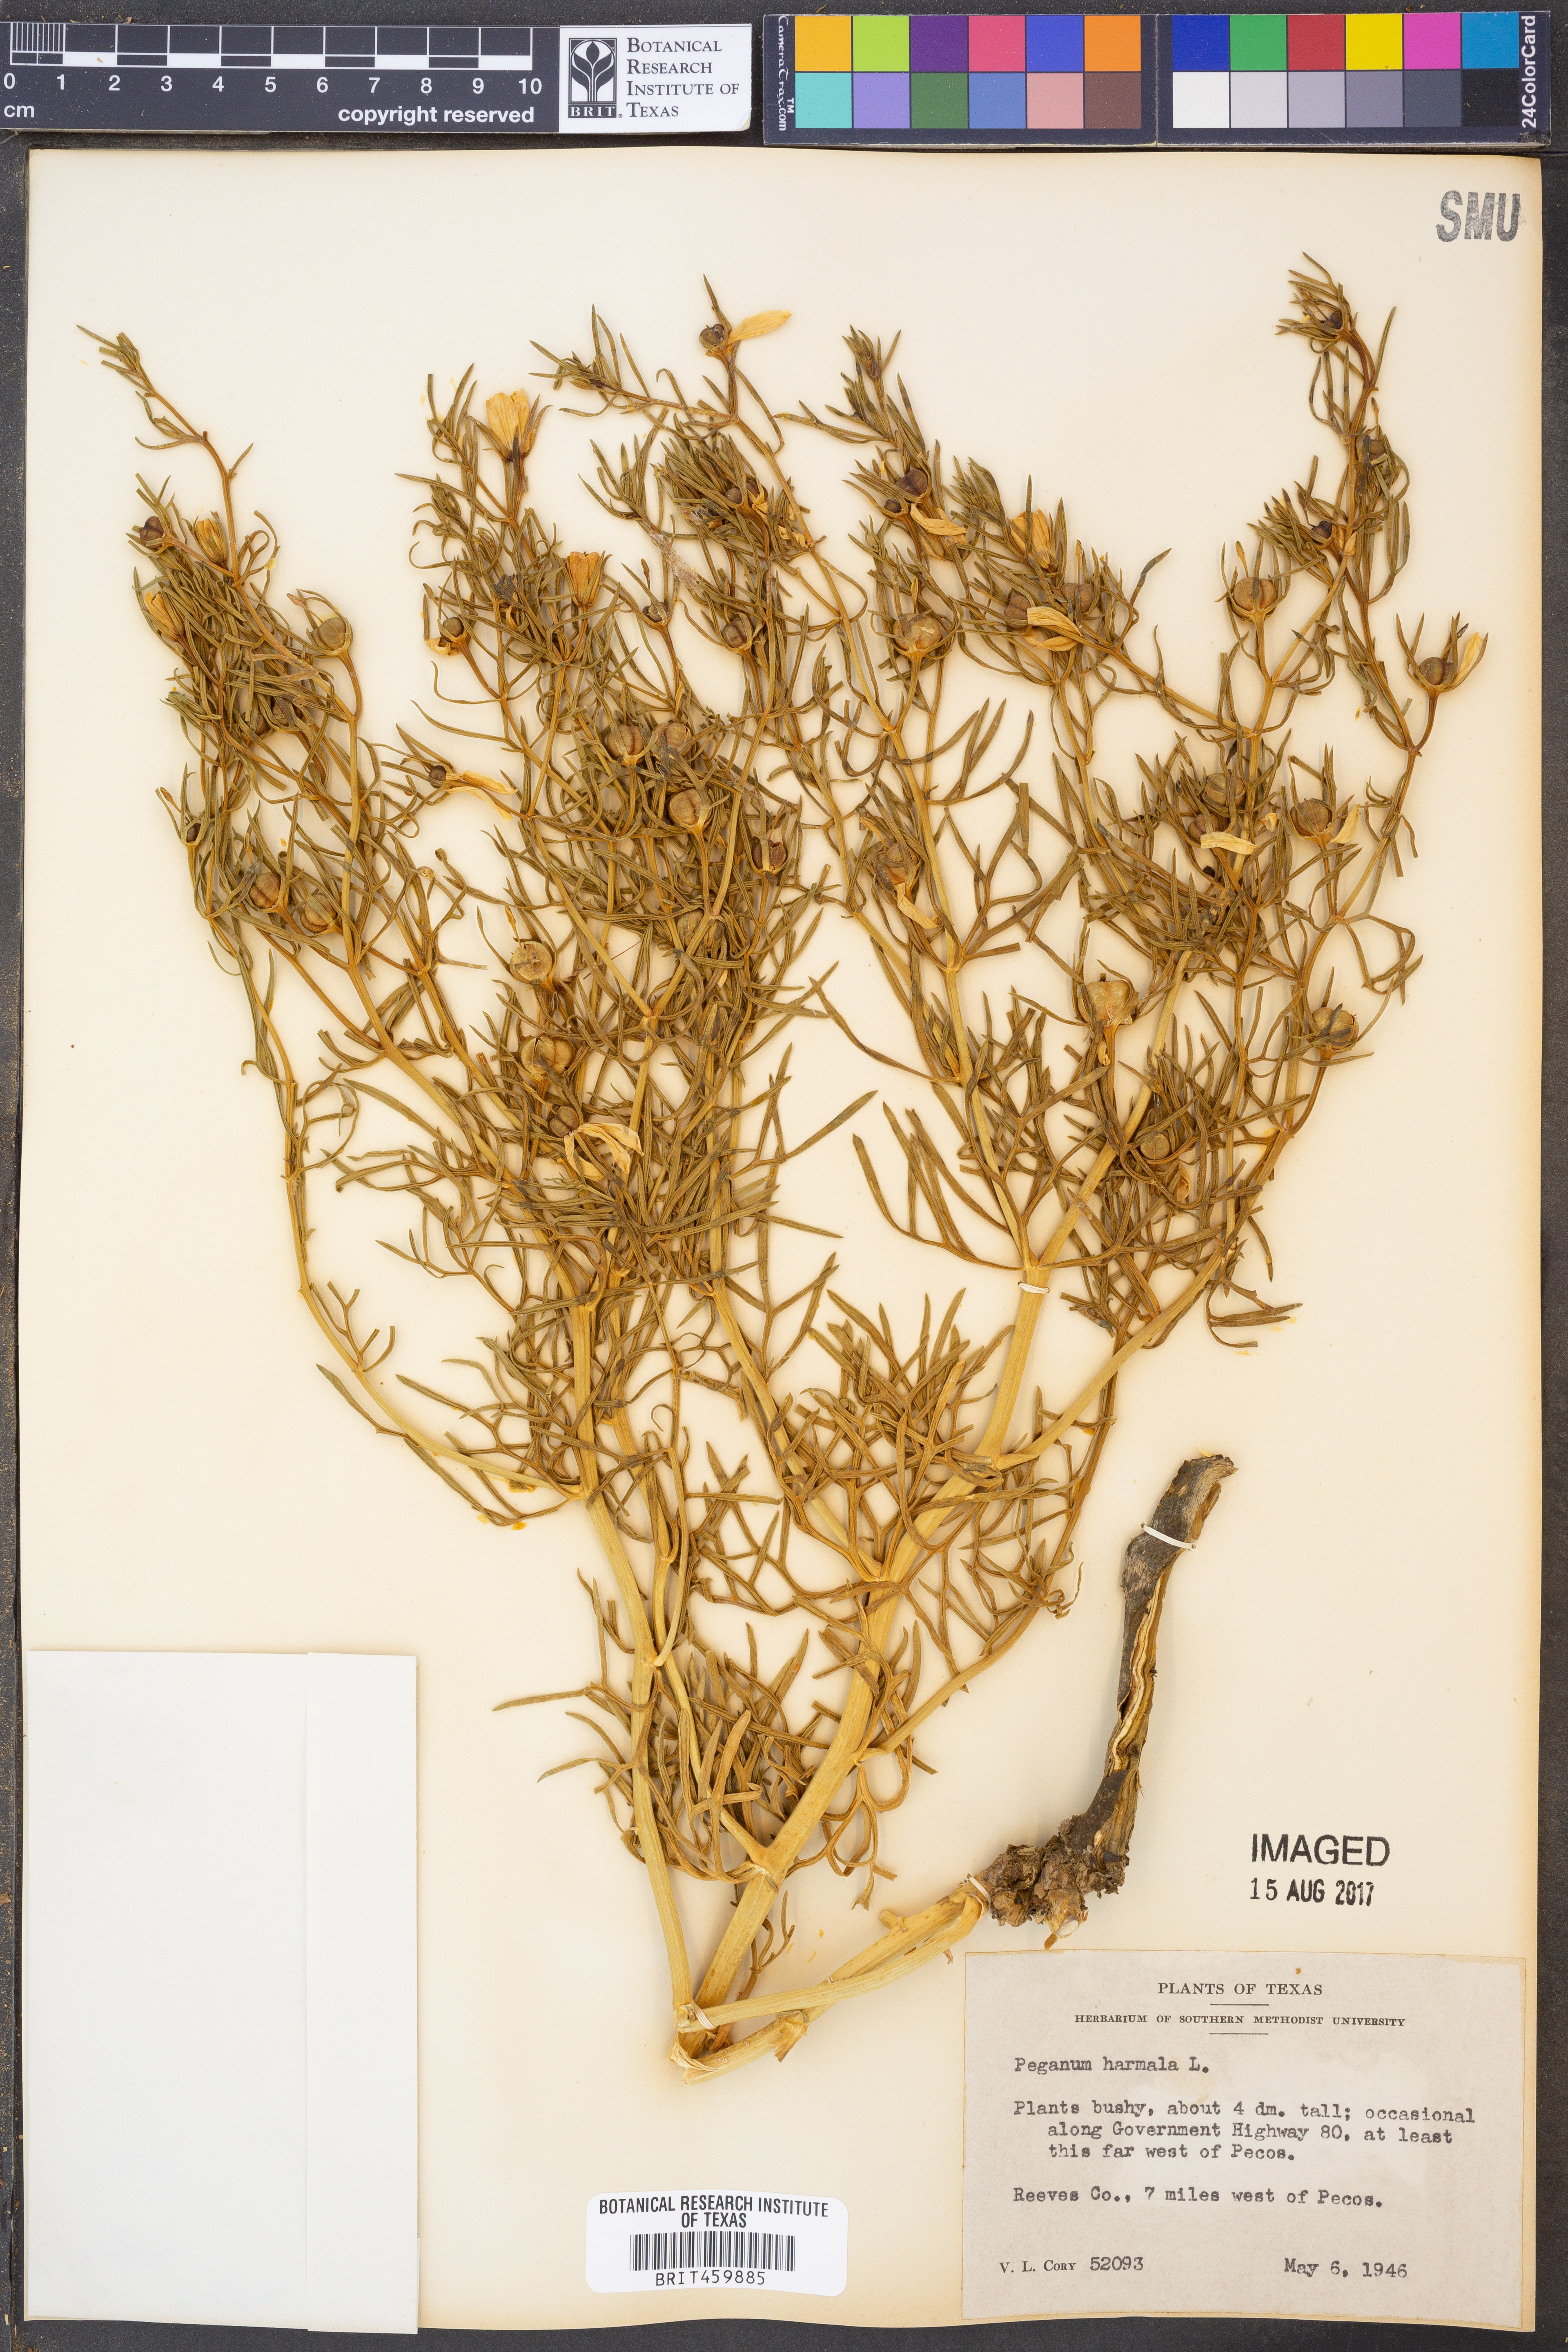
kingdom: Plantae
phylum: Tracheophyta
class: Magnoliopsida
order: Sapindales
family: Tetradiclidaceae
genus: Peganum
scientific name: Peganum harmala
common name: Harmal peganum
